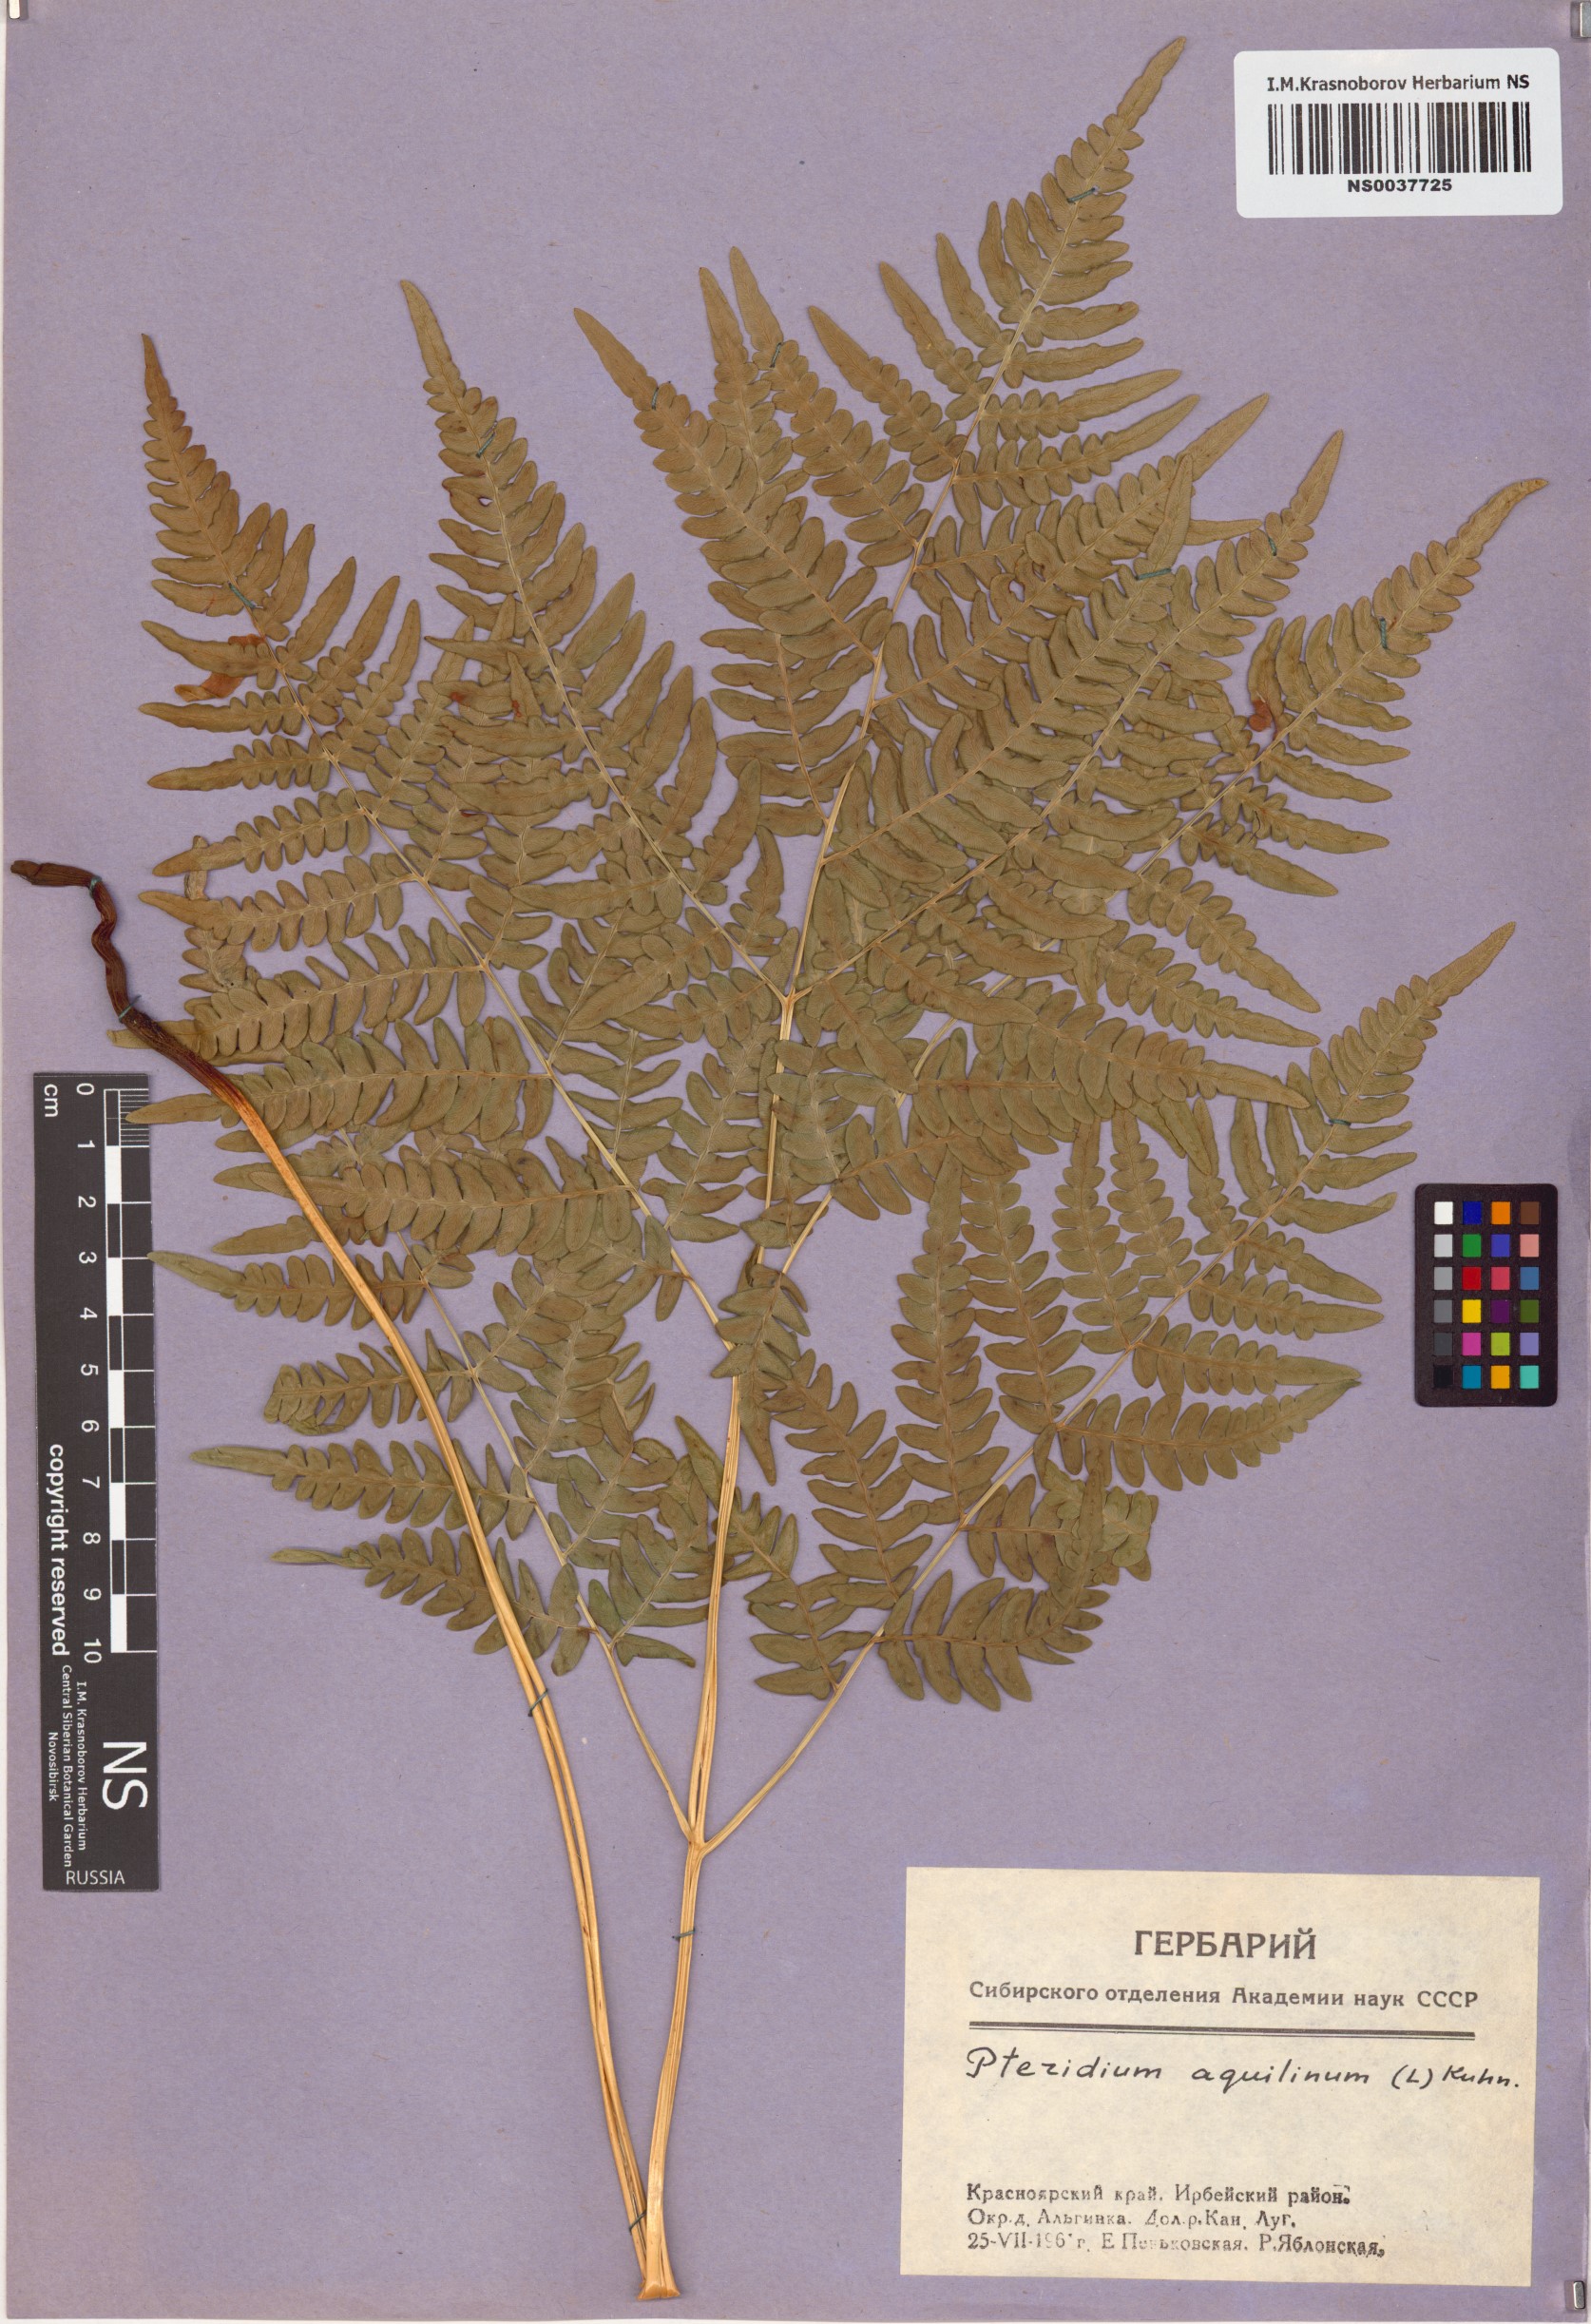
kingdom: Plantae
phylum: Tracheophyta
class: Polypodiopsida
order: Polypodiales
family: Dennstaedtiaceae
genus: Pteridium
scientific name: Pteridium aquilinum
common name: Bracken
